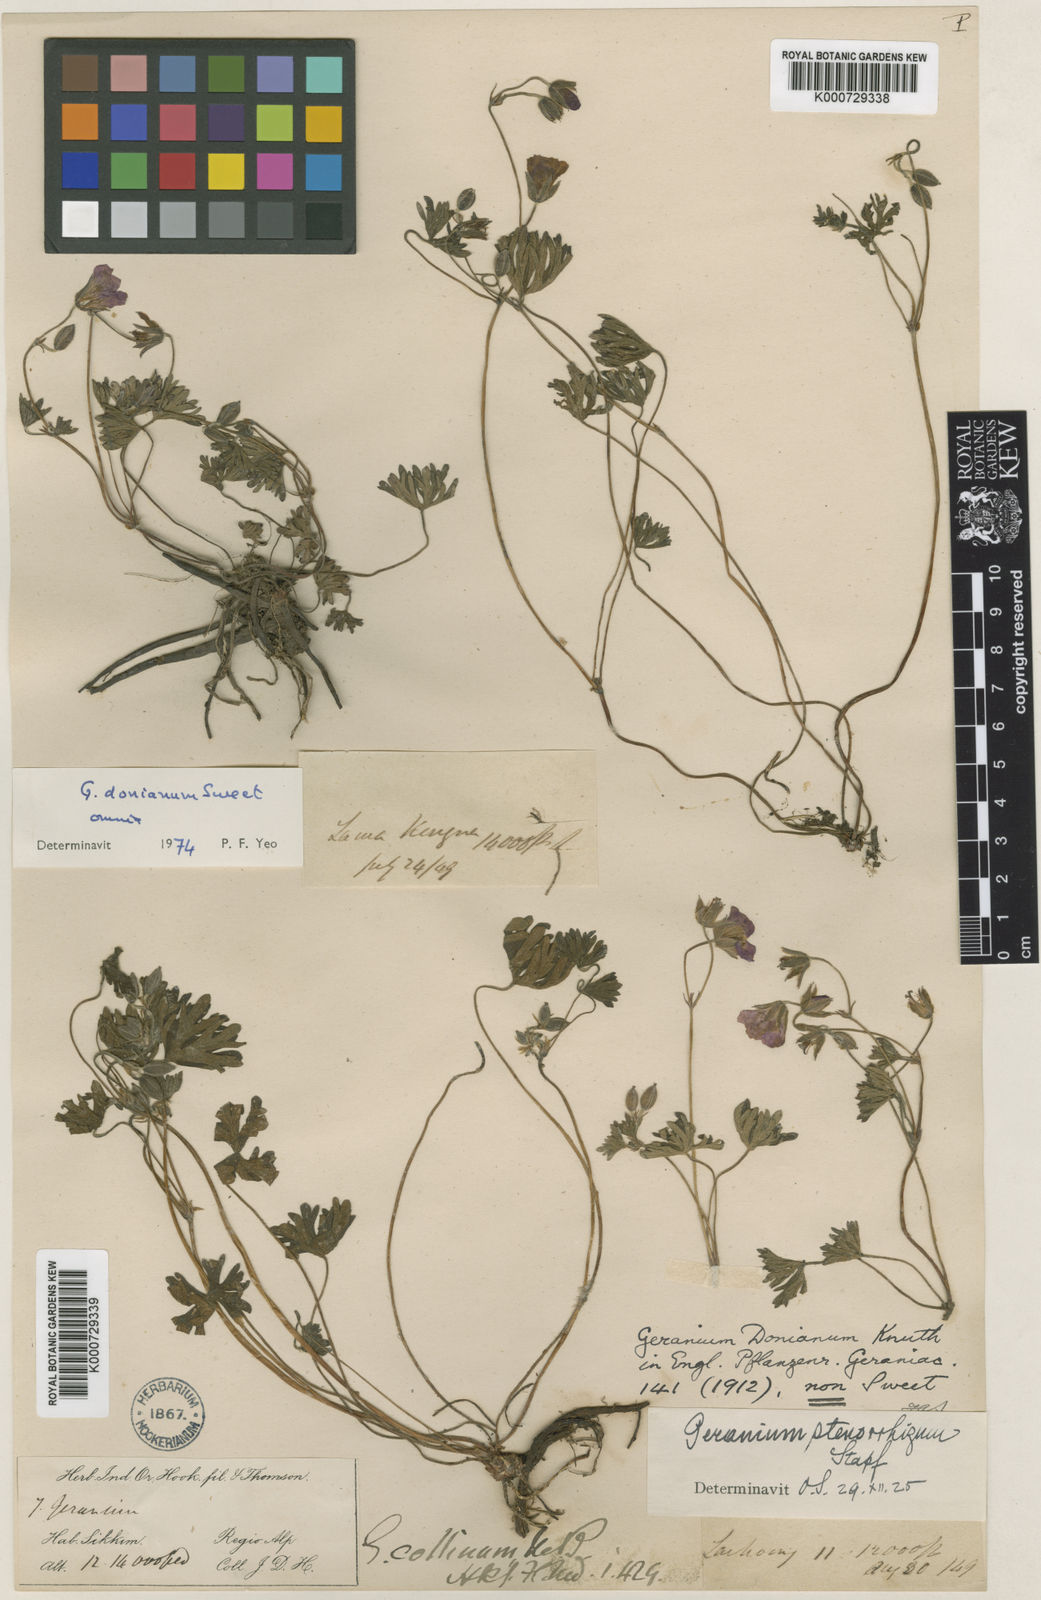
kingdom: Plantae
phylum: Tracheophyta
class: Magnoliopsida
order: Geraniales
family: Geraniaceae
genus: Geranium
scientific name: Geranium donianum
